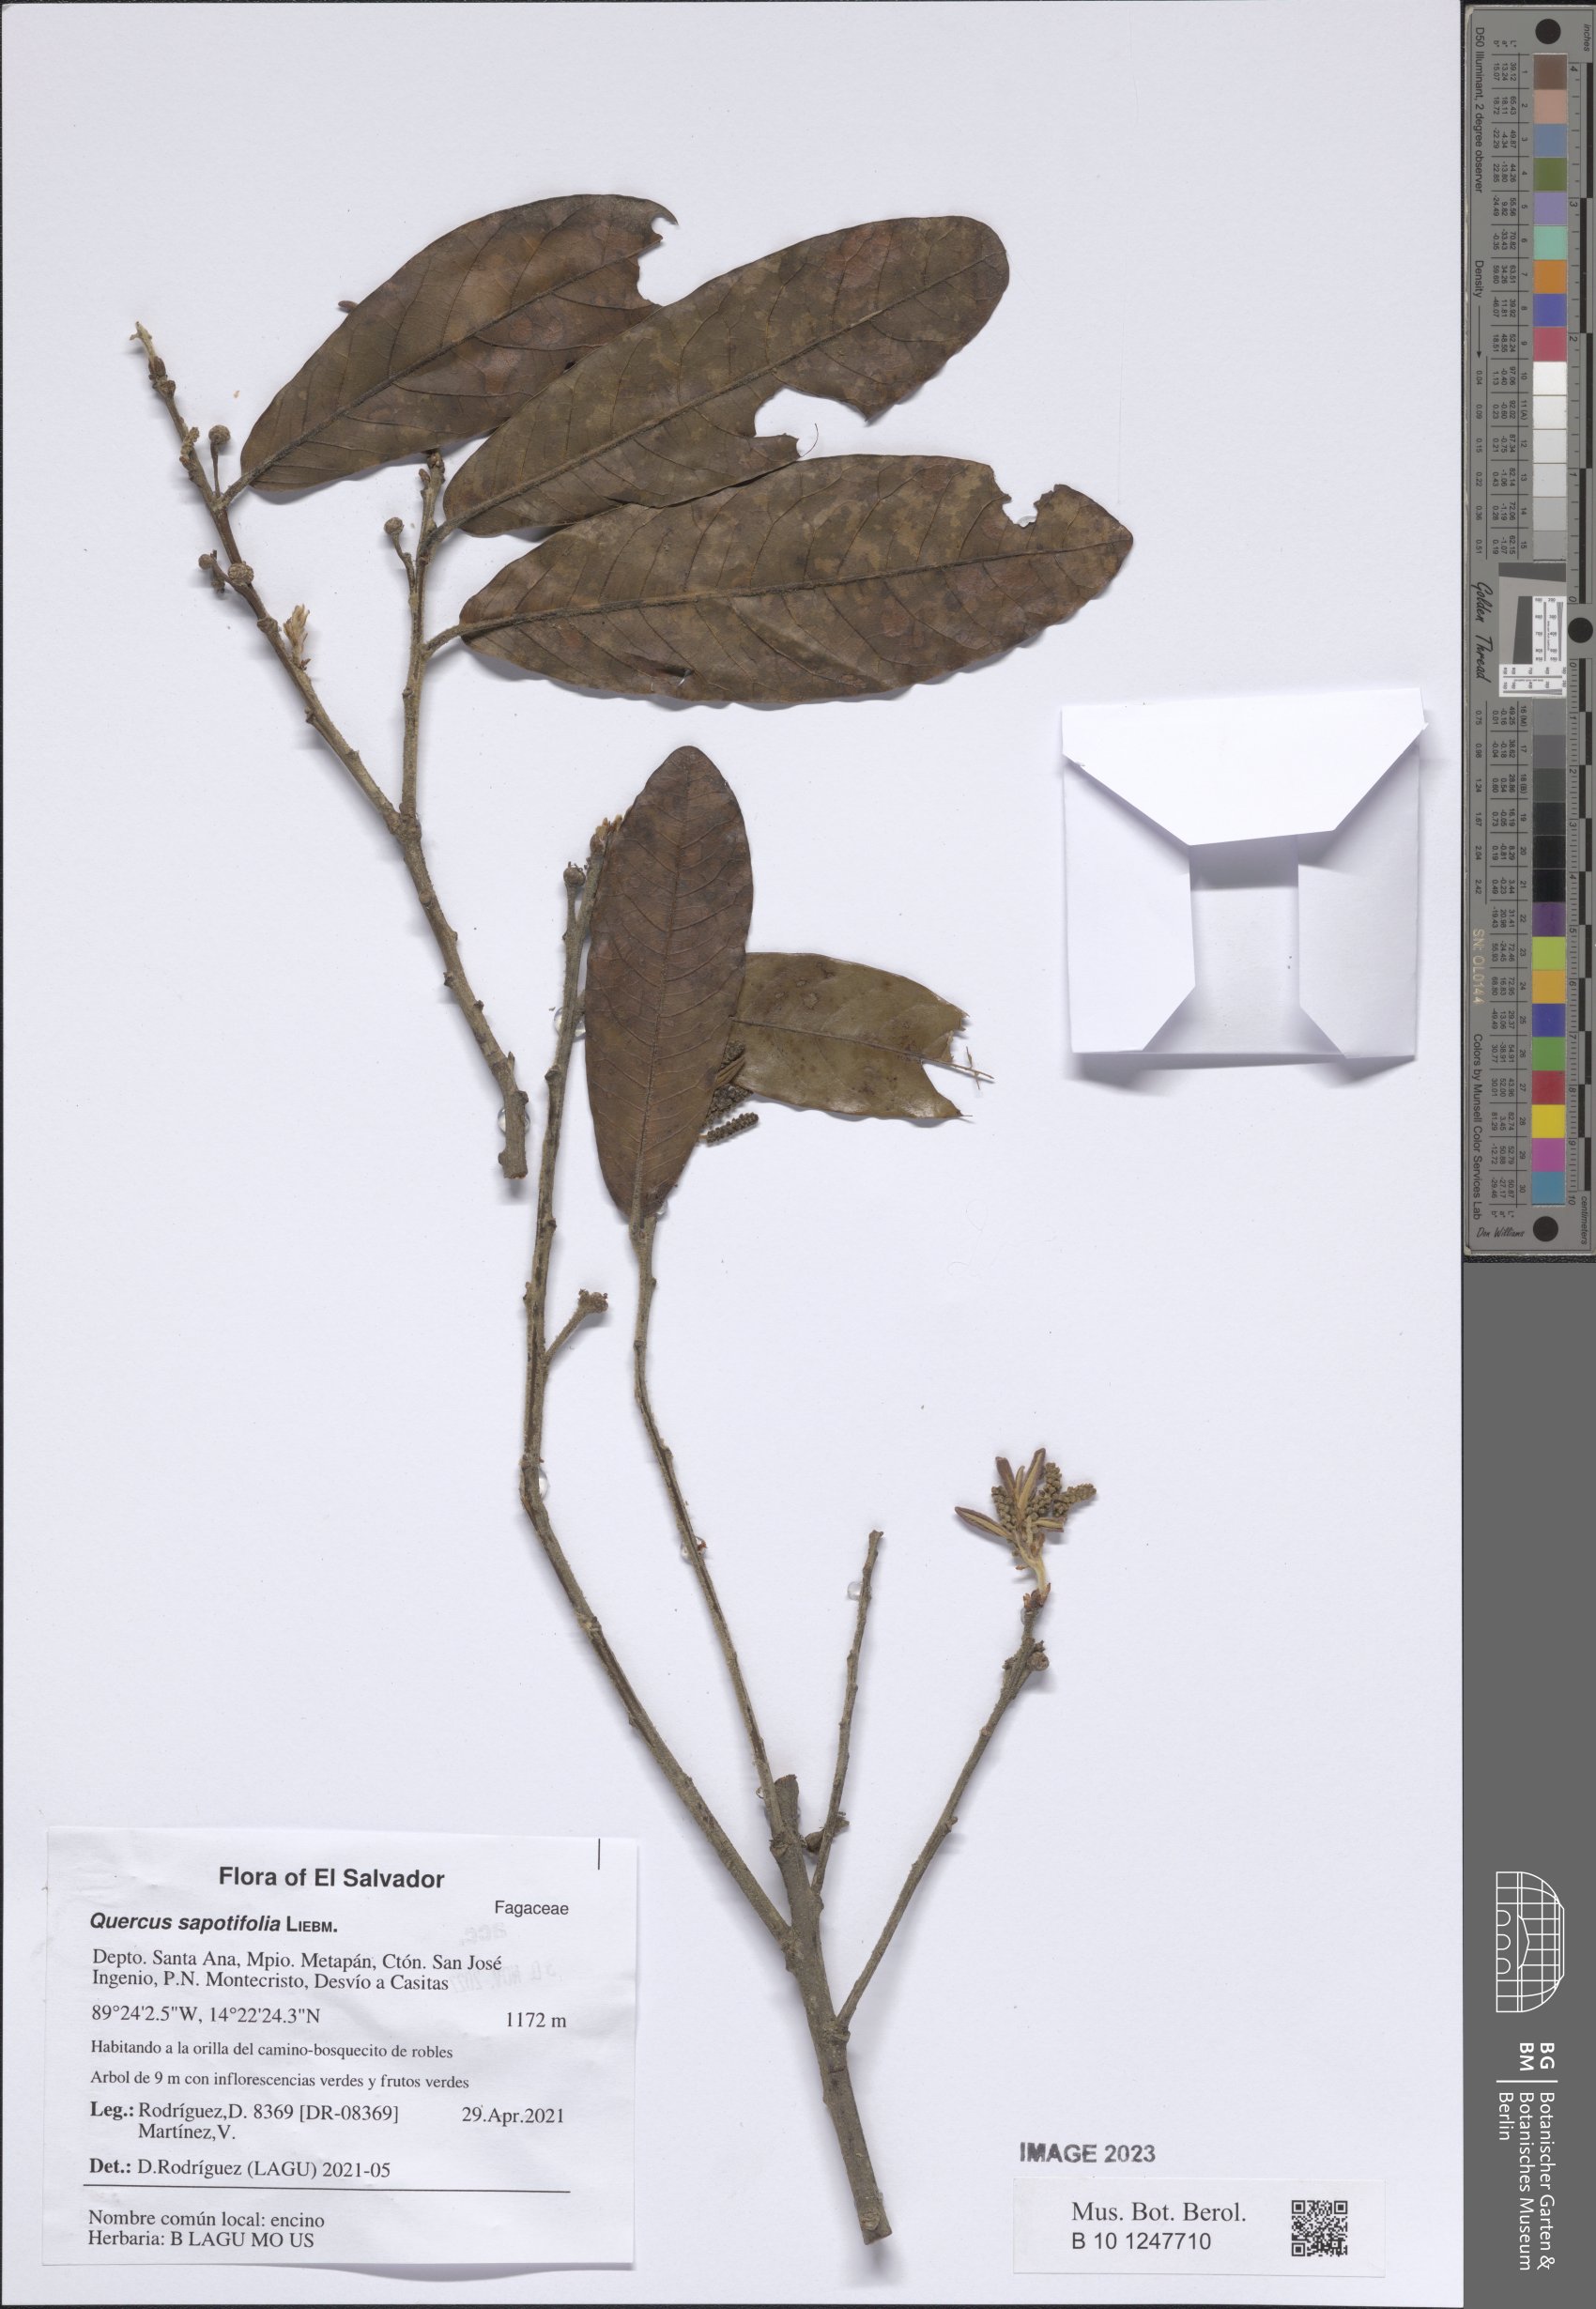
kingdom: Plantae
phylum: Tracheophyta
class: Magnoliopsida
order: Fagales
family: Fagaceae
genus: Quercus
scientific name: Quercus sapotifolia
